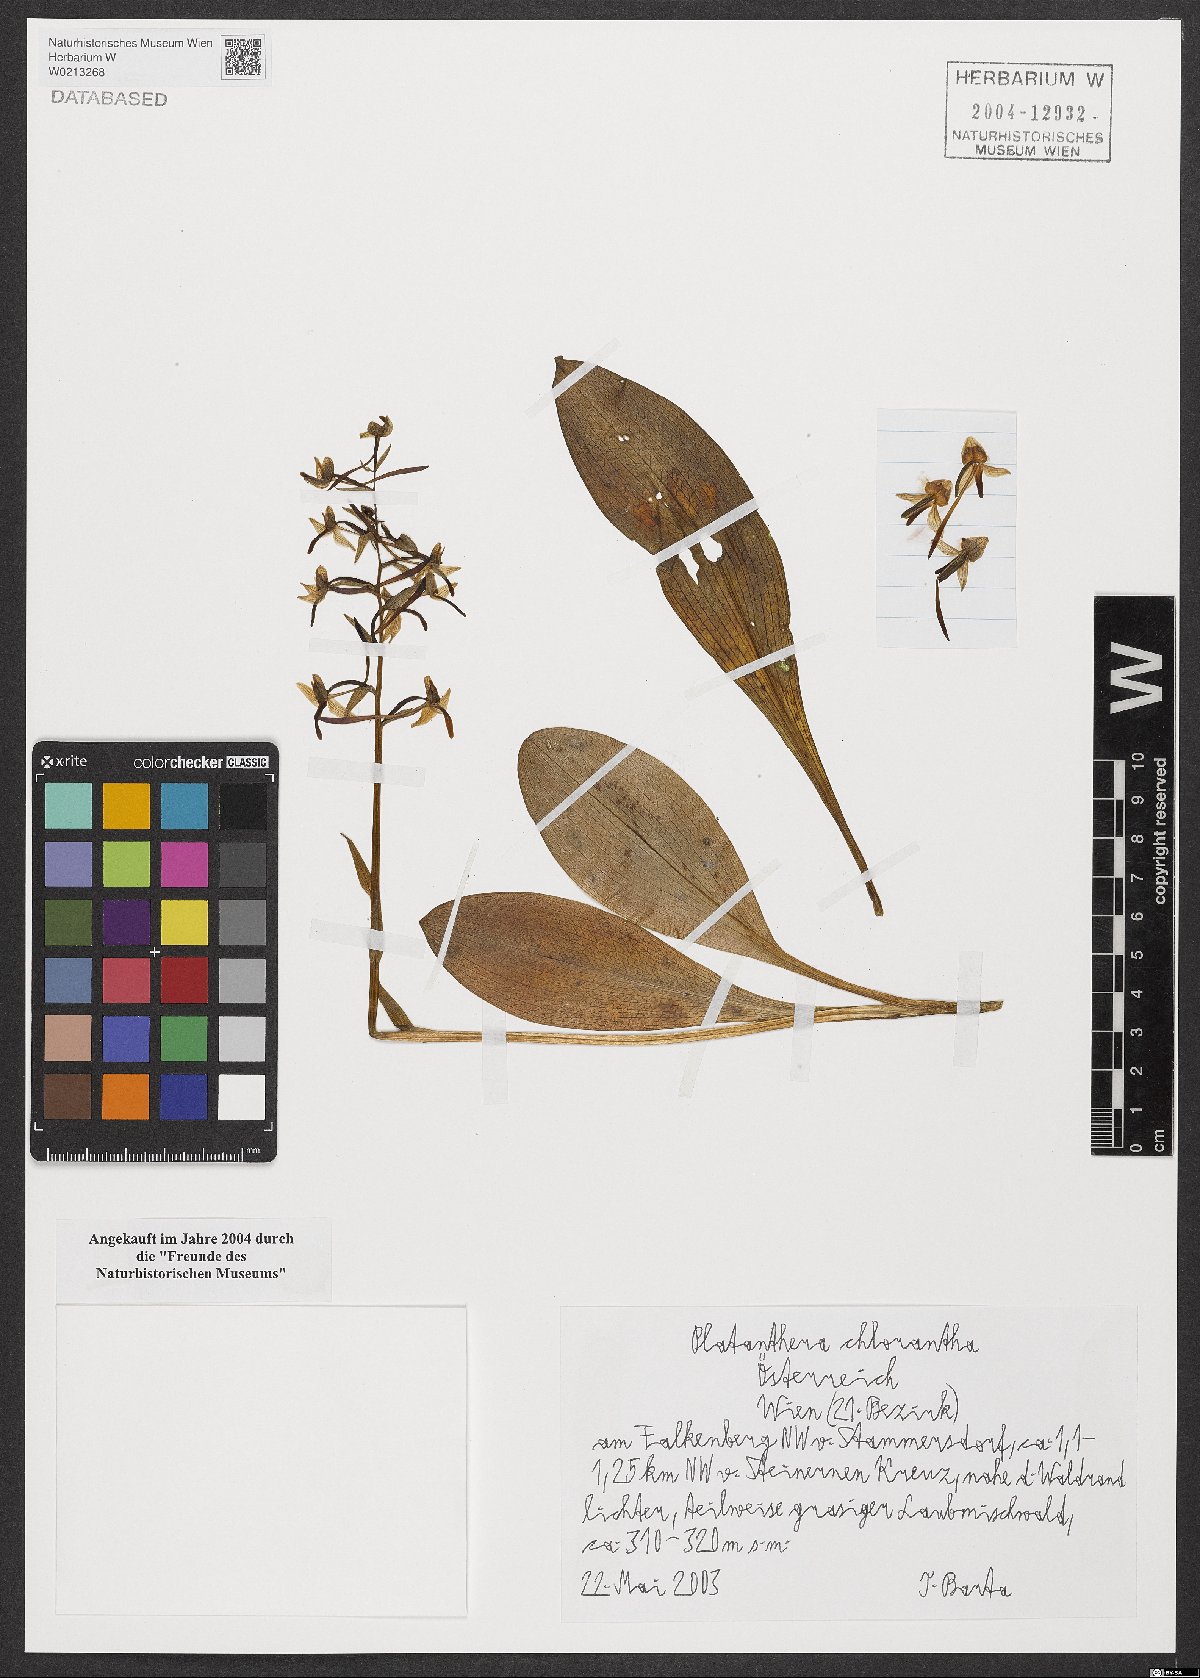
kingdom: Plantae
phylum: Tracheophyta
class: Liliopsida
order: Asparagales
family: Orchidaceae
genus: Platanthera
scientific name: Platanthera chlorantha
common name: Greater butterfly-orchid
